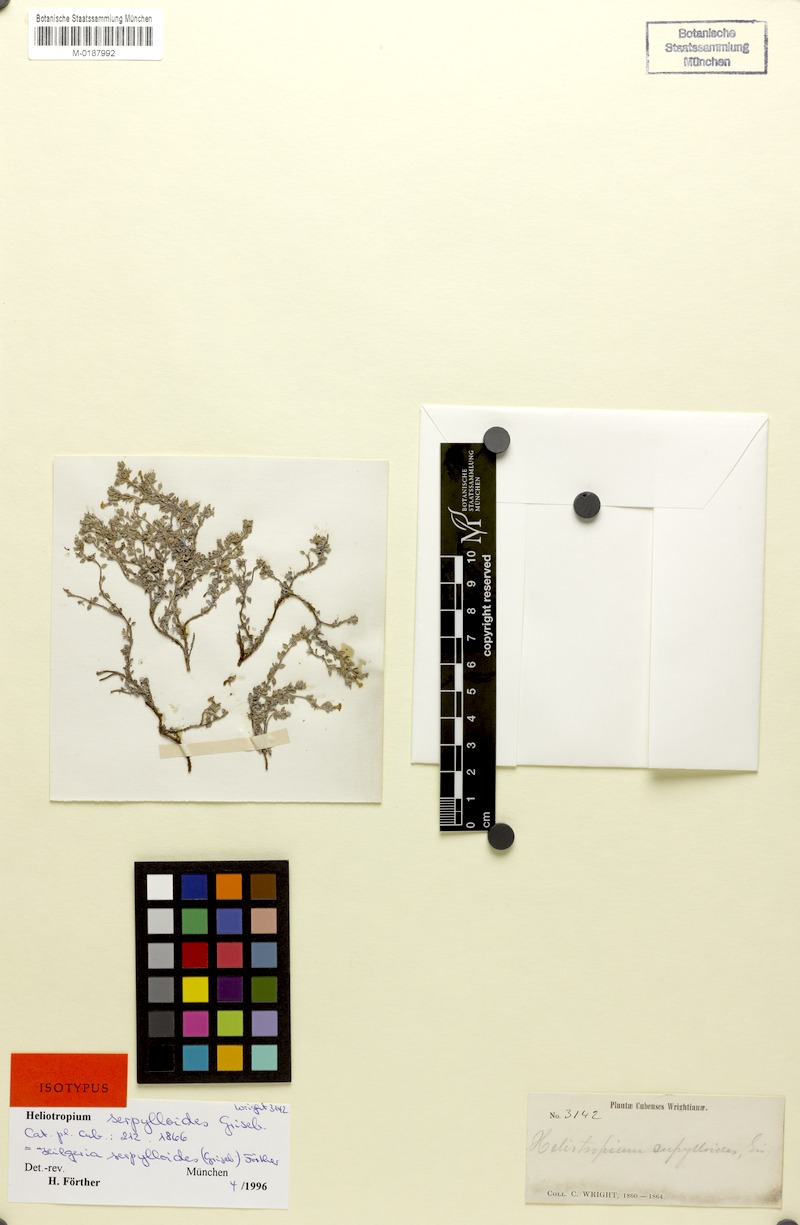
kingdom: Plantae
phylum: Tracheophyta
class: Magnoliopsida
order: Boraginales
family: Heliotropiaceae
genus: Euploca
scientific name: Euploca serpylloides
